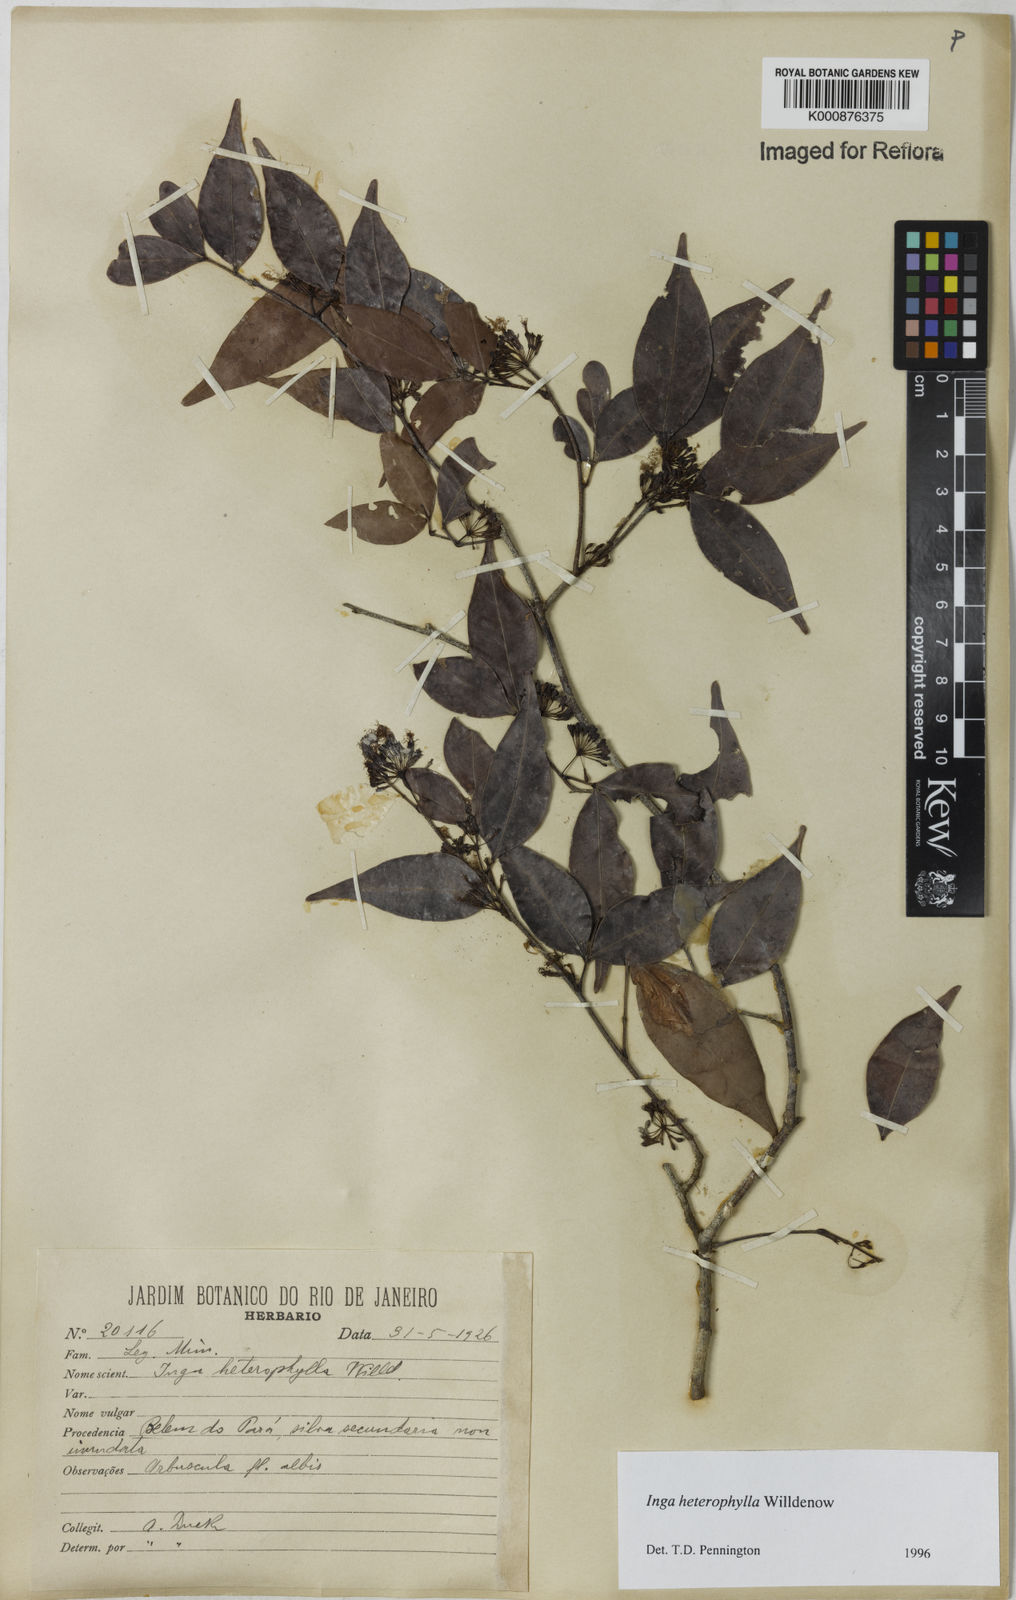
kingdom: Plantae
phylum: Tracheophyta
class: Magnoliopsida
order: Fabales
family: Fabaceae
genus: Inga
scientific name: Inga heterophylla
